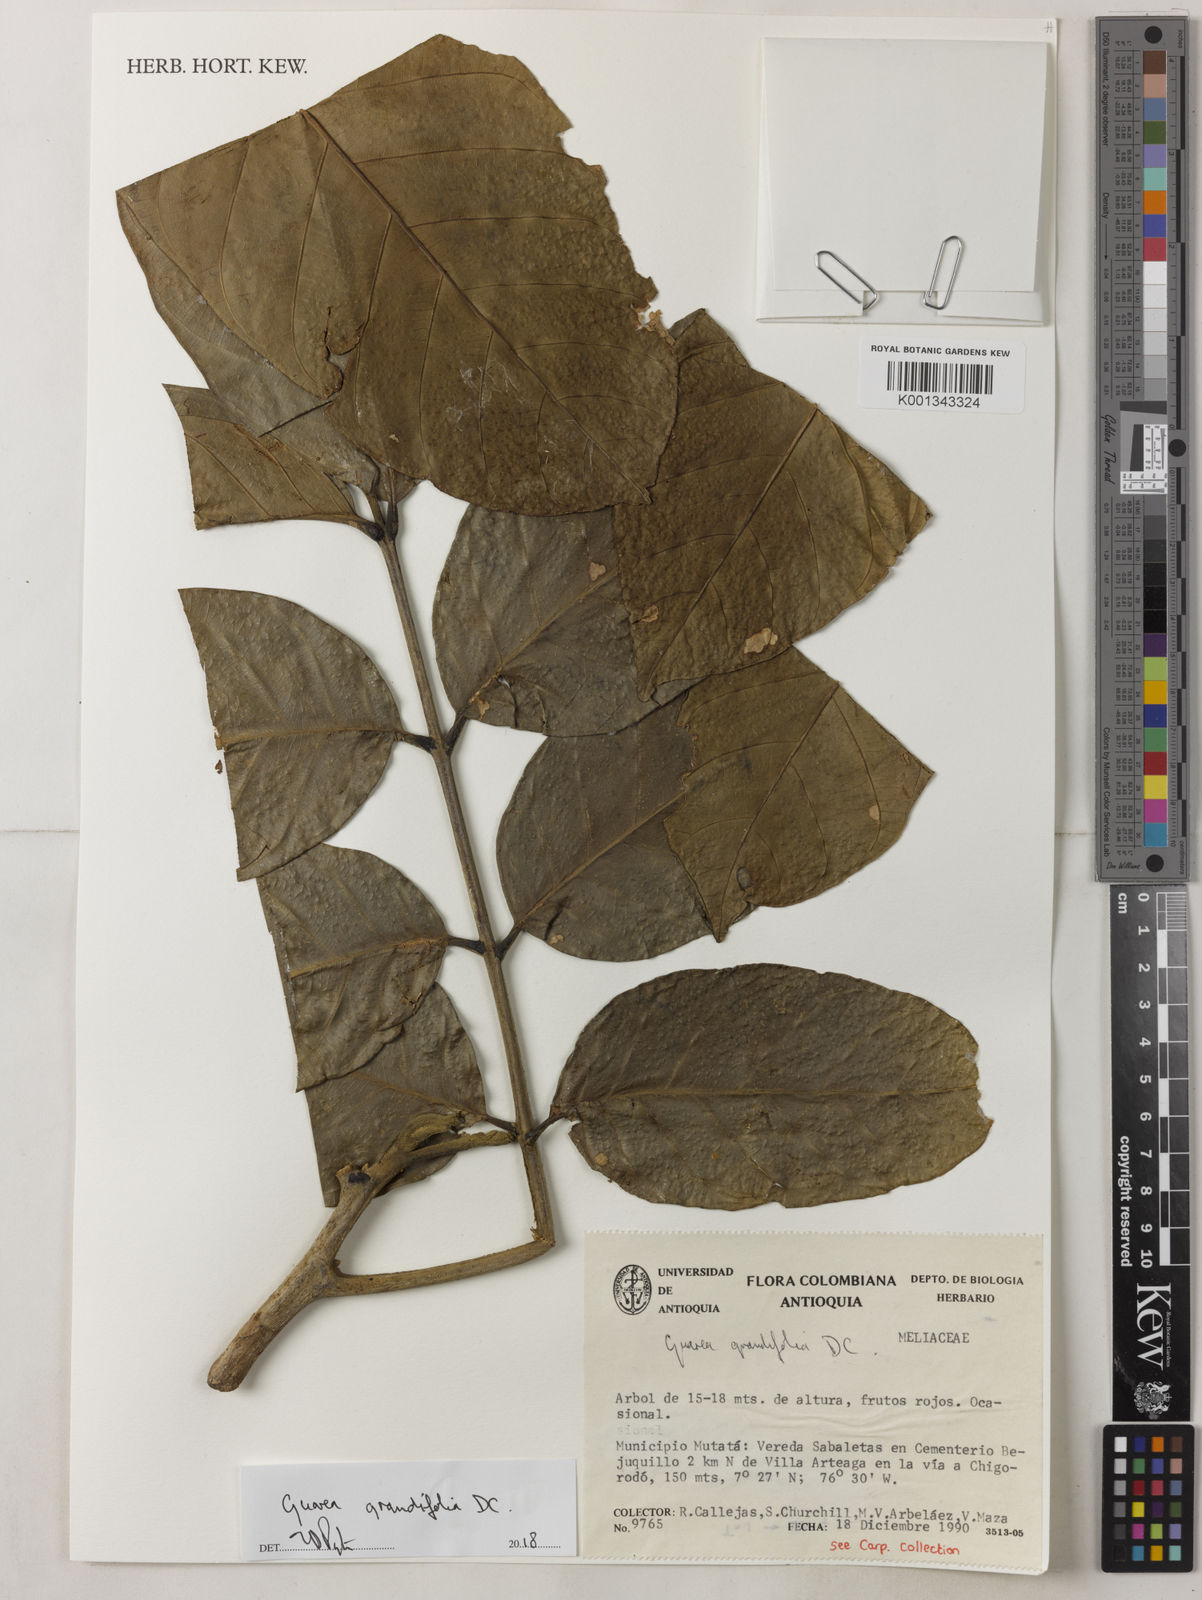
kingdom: Plantae
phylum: Tracheophyta
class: Magnoliopsida
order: Sapindales
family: Meliaceae
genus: Guarea
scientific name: Guarea
